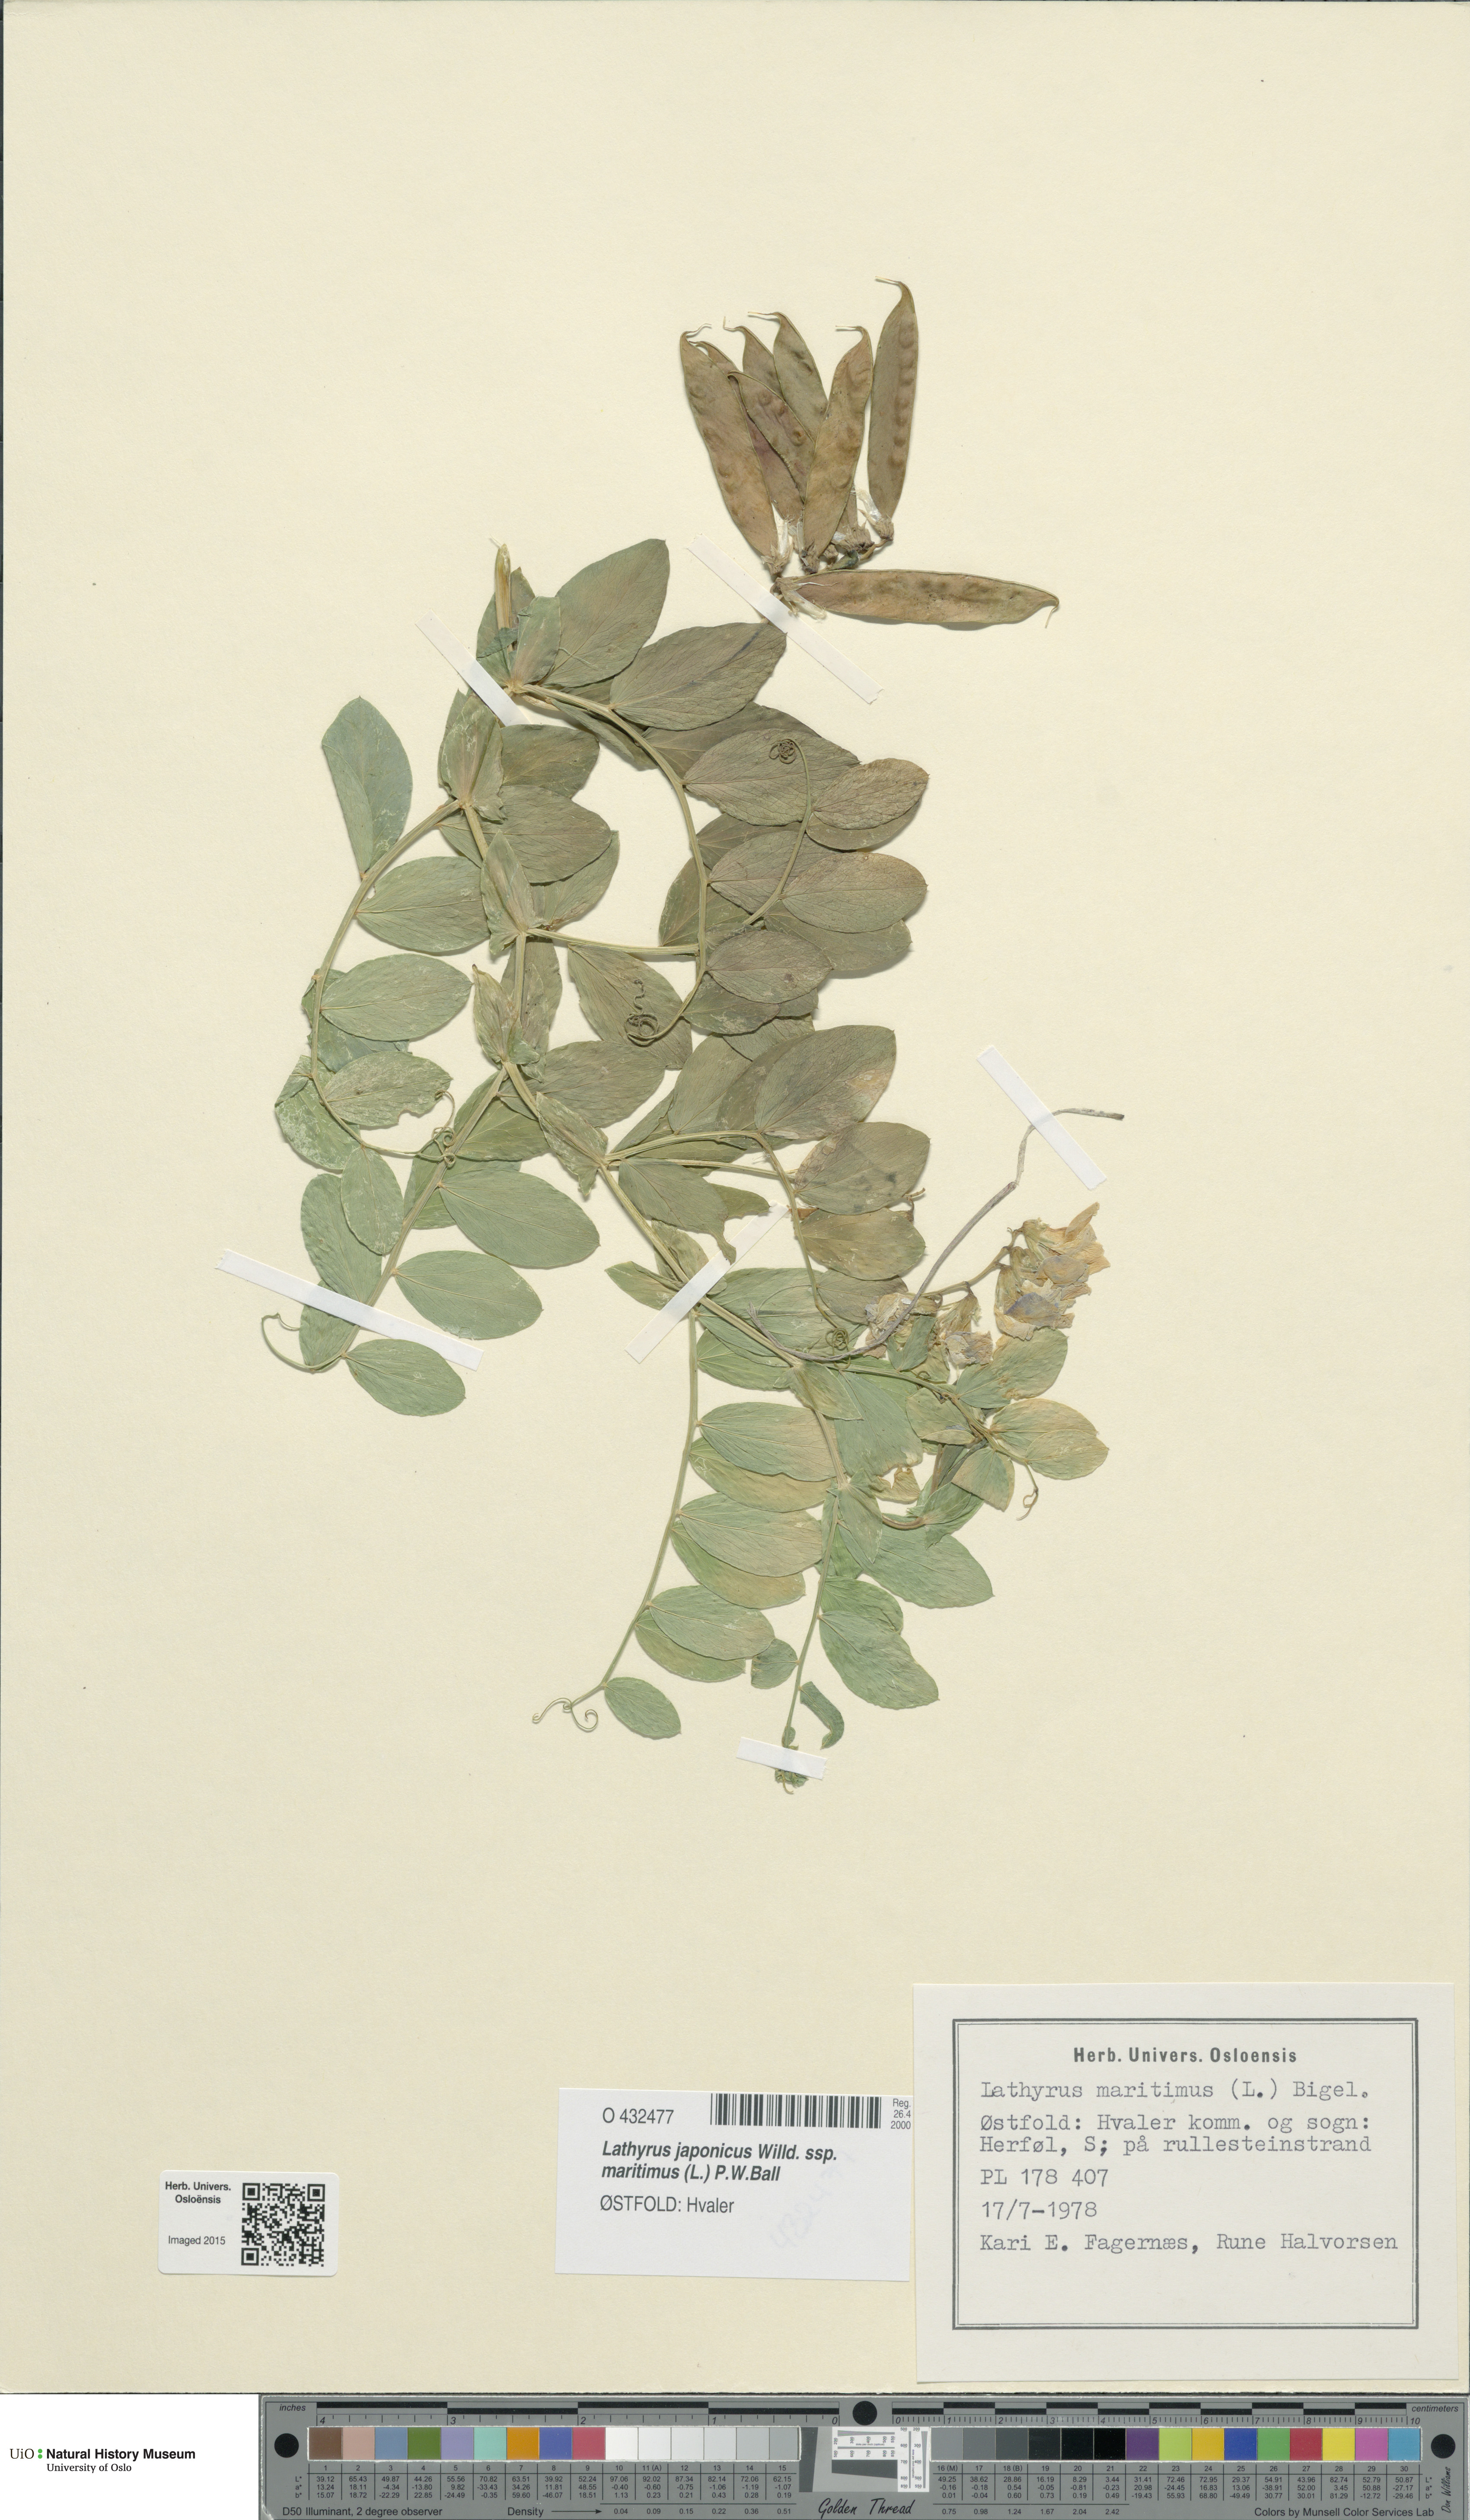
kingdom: Plantae
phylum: Tracheophyta
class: Magnoliopsida
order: Fabales
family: Fabaceae
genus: Lathyrus
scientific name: Lathyrus japonicus
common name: Sea pea
